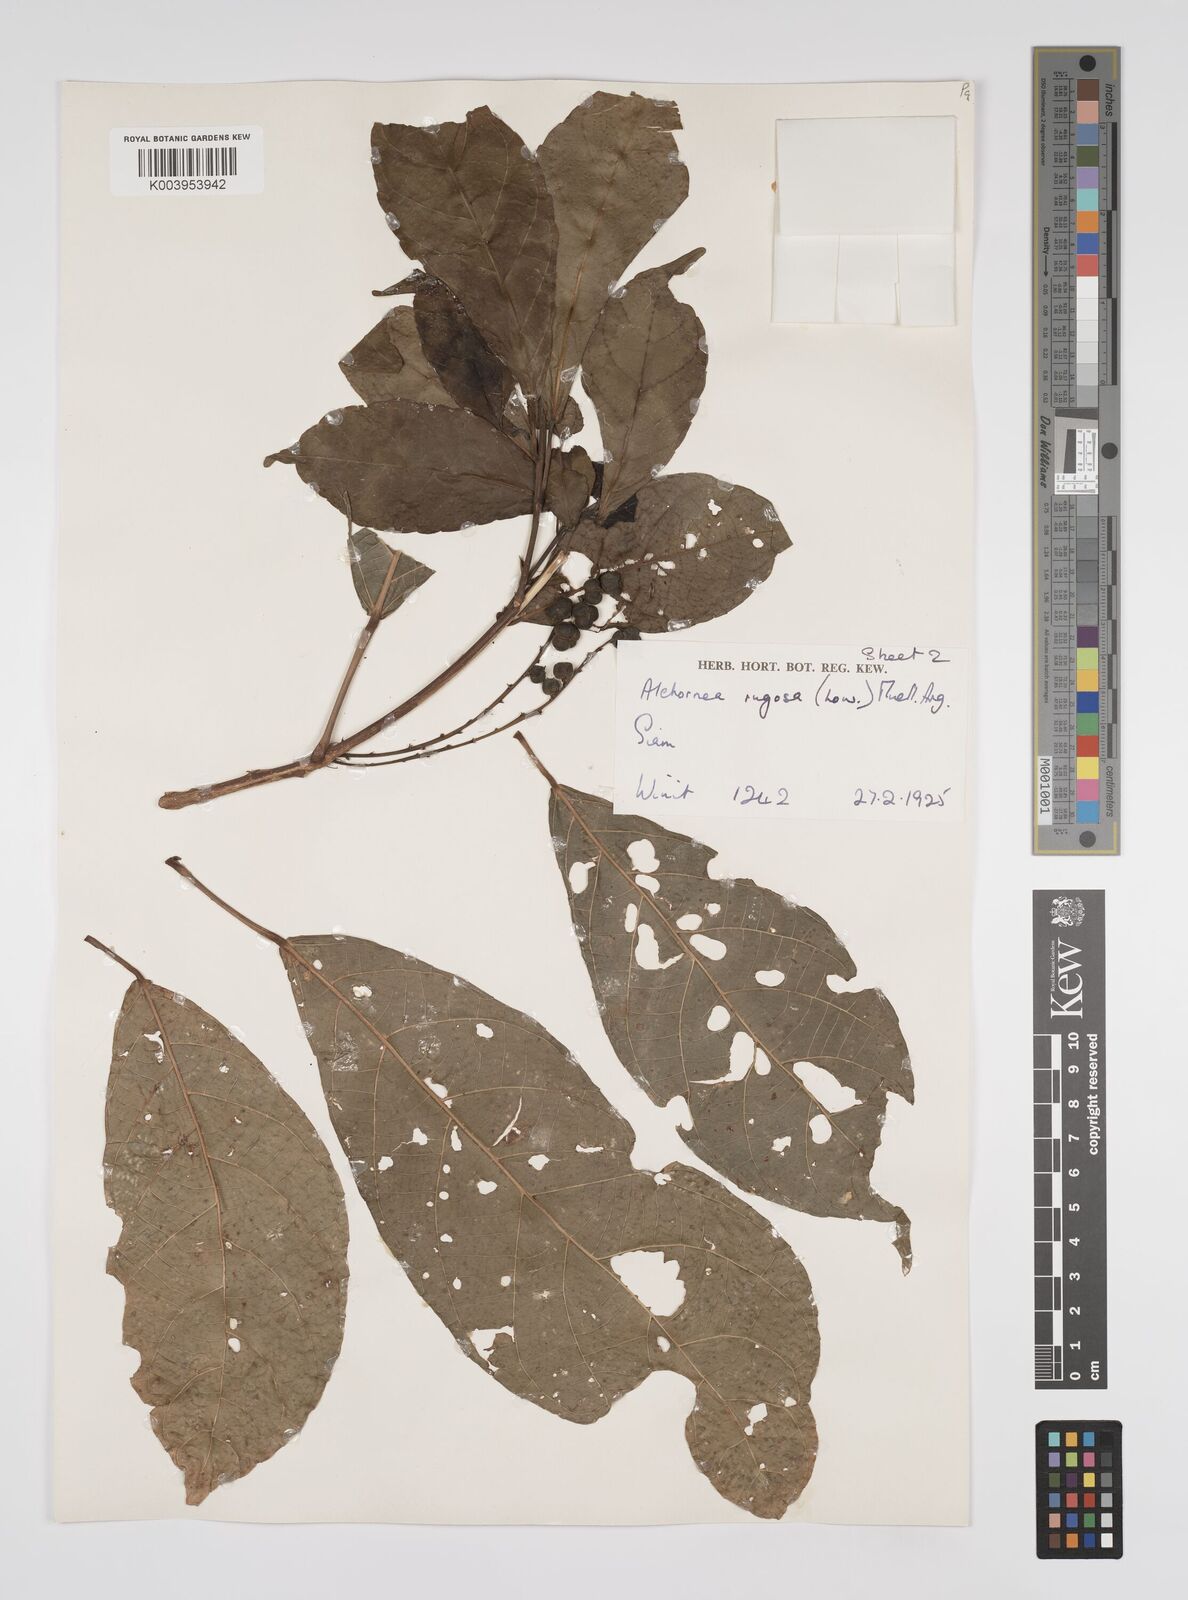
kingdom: Plantae
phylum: Tracheophyta
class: Magnoliopsida
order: Malpighiales
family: Euphorbiaceae
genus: Alchornea
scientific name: Alchornea rugosa
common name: Alchorntree
